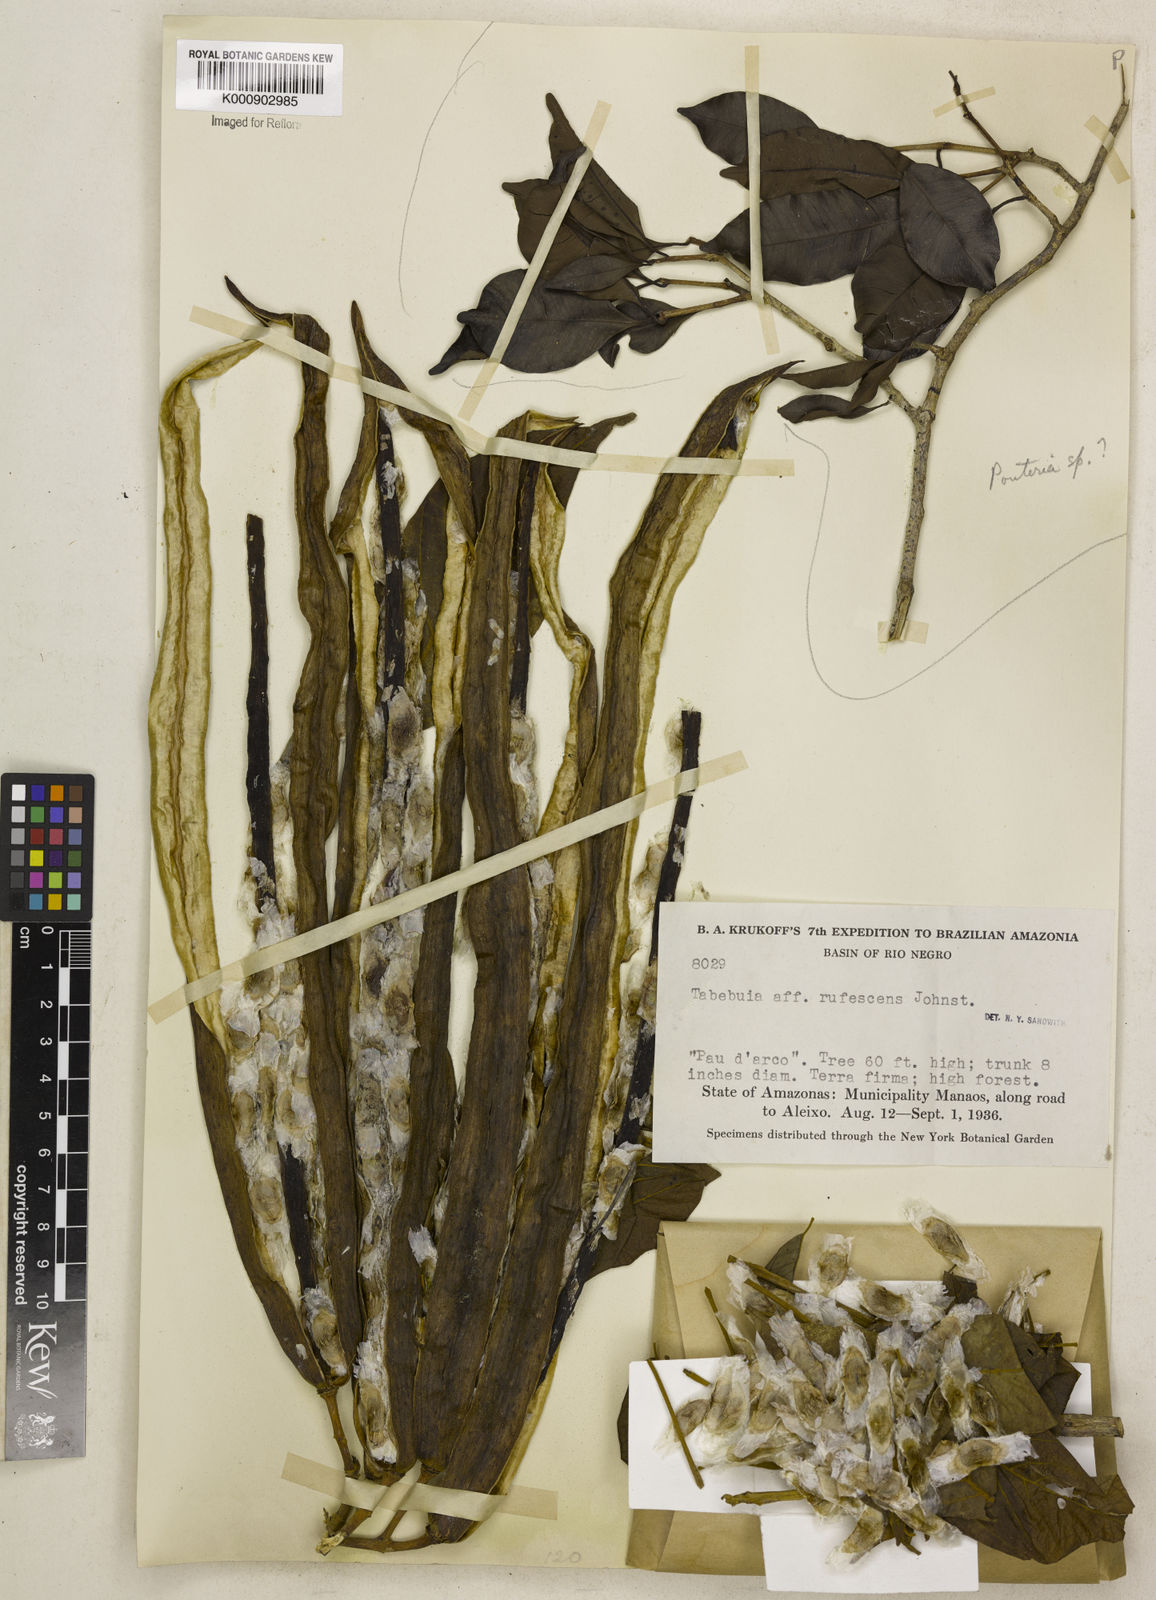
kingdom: Plantae
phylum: Tracheophyta
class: Magnoliopsida
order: Lamiales
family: Bignoniaceae
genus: Handroanthus
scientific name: Handroanthus chrysanthus
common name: Trumpet trees
